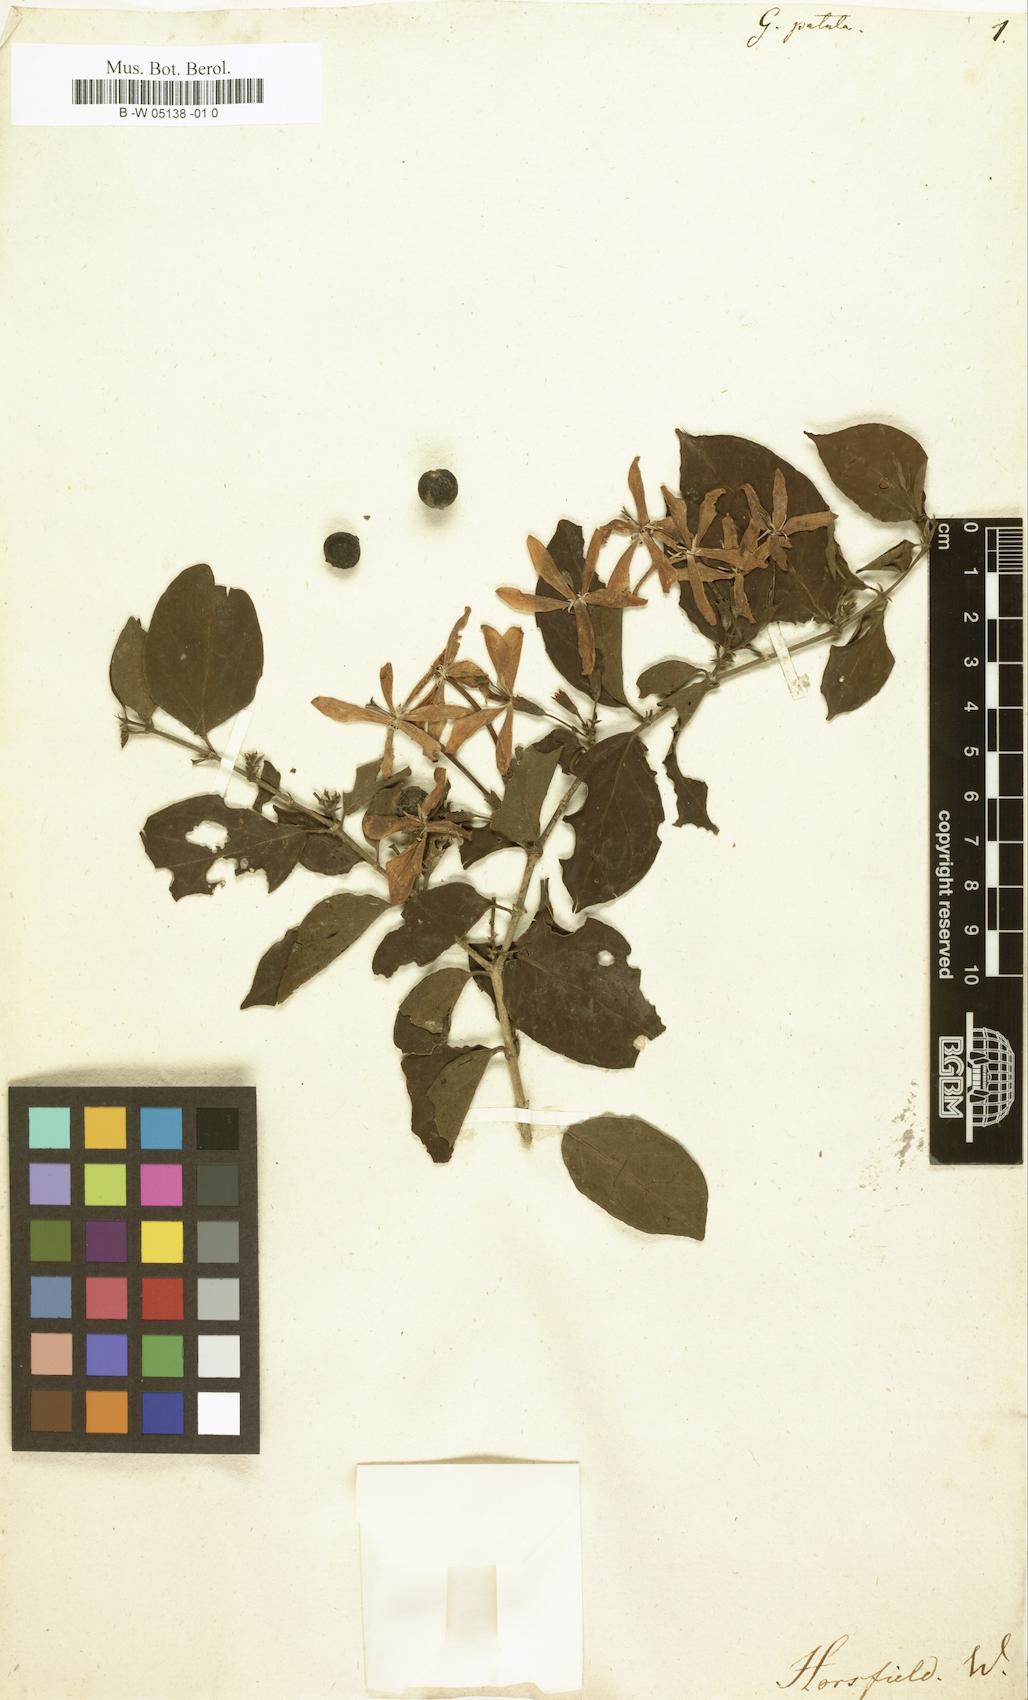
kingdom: Plantae
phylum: Tracheophyta
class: Magnoliopsida
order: Gentianales
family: Rubiaceae
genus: Oxyceros
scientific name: Oxyceros patulus
